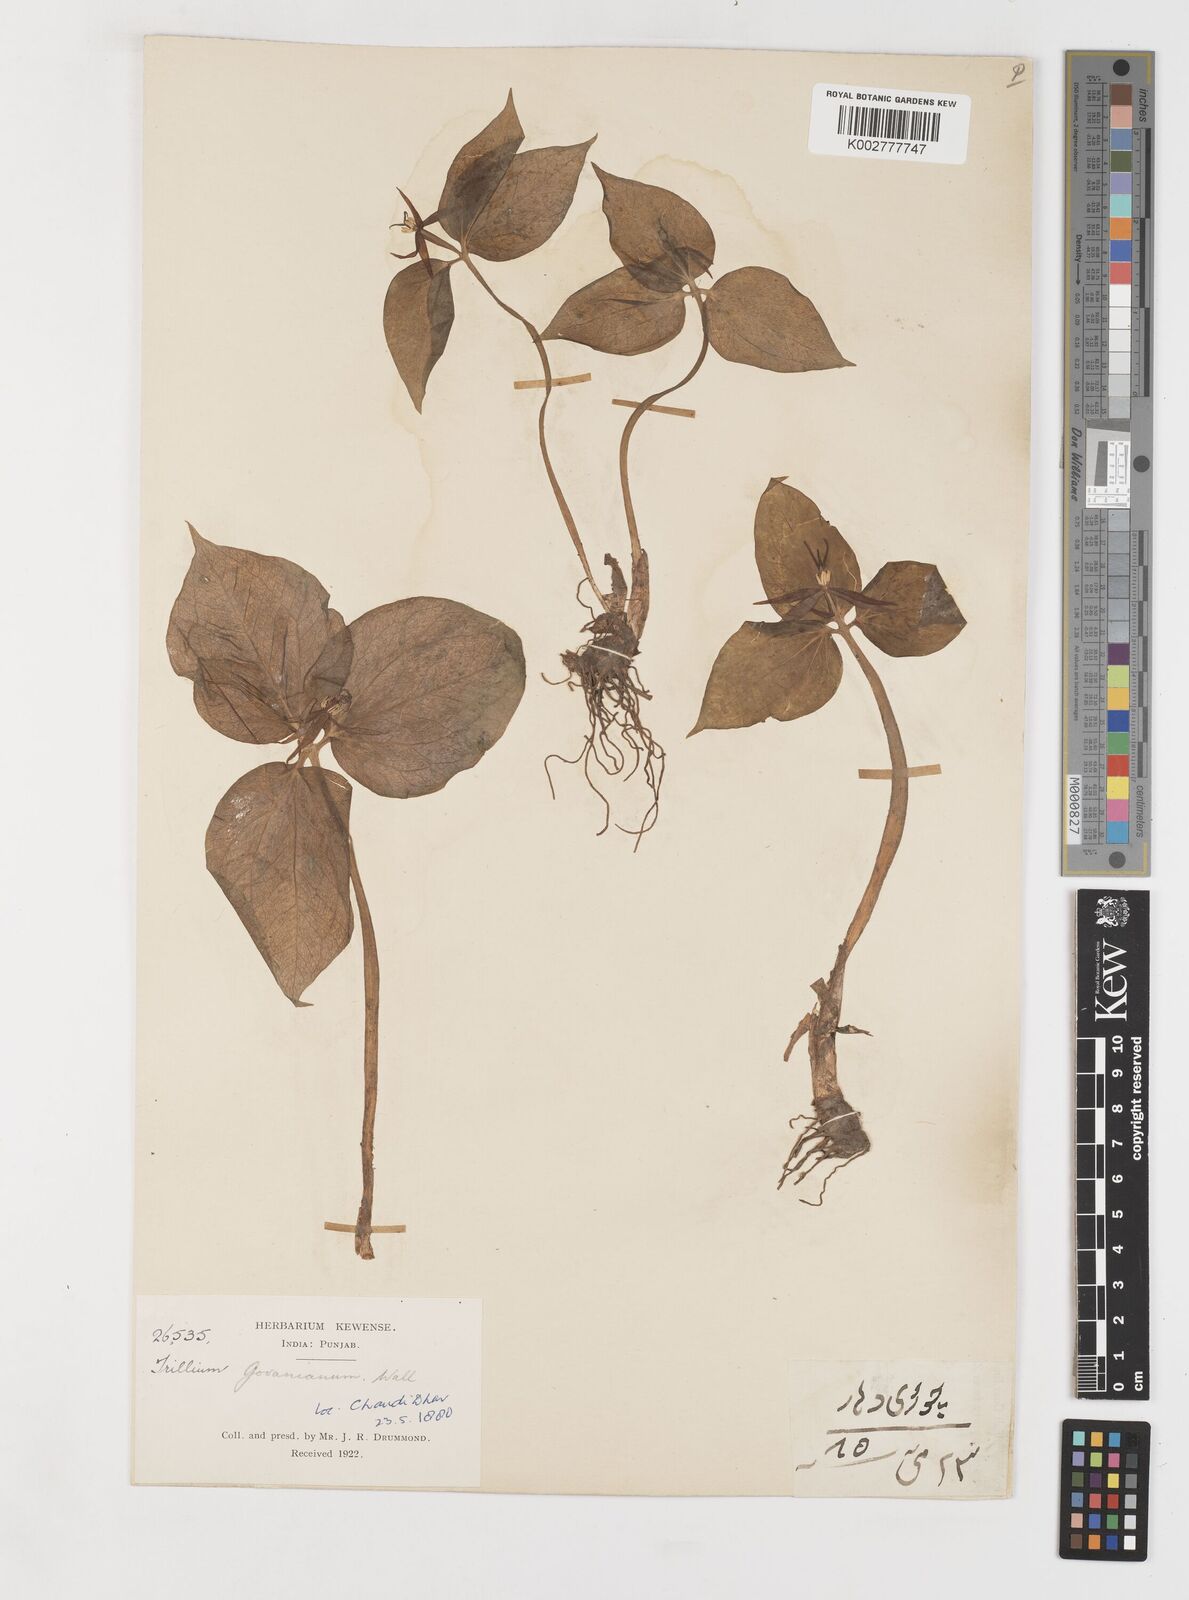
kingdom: Plantae
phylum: Tracheophyta
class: Liliopsida
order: Liliales
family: Melanthiaceae
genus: Trillium
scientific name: Trillium govanianum
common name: Himalayan trillium
